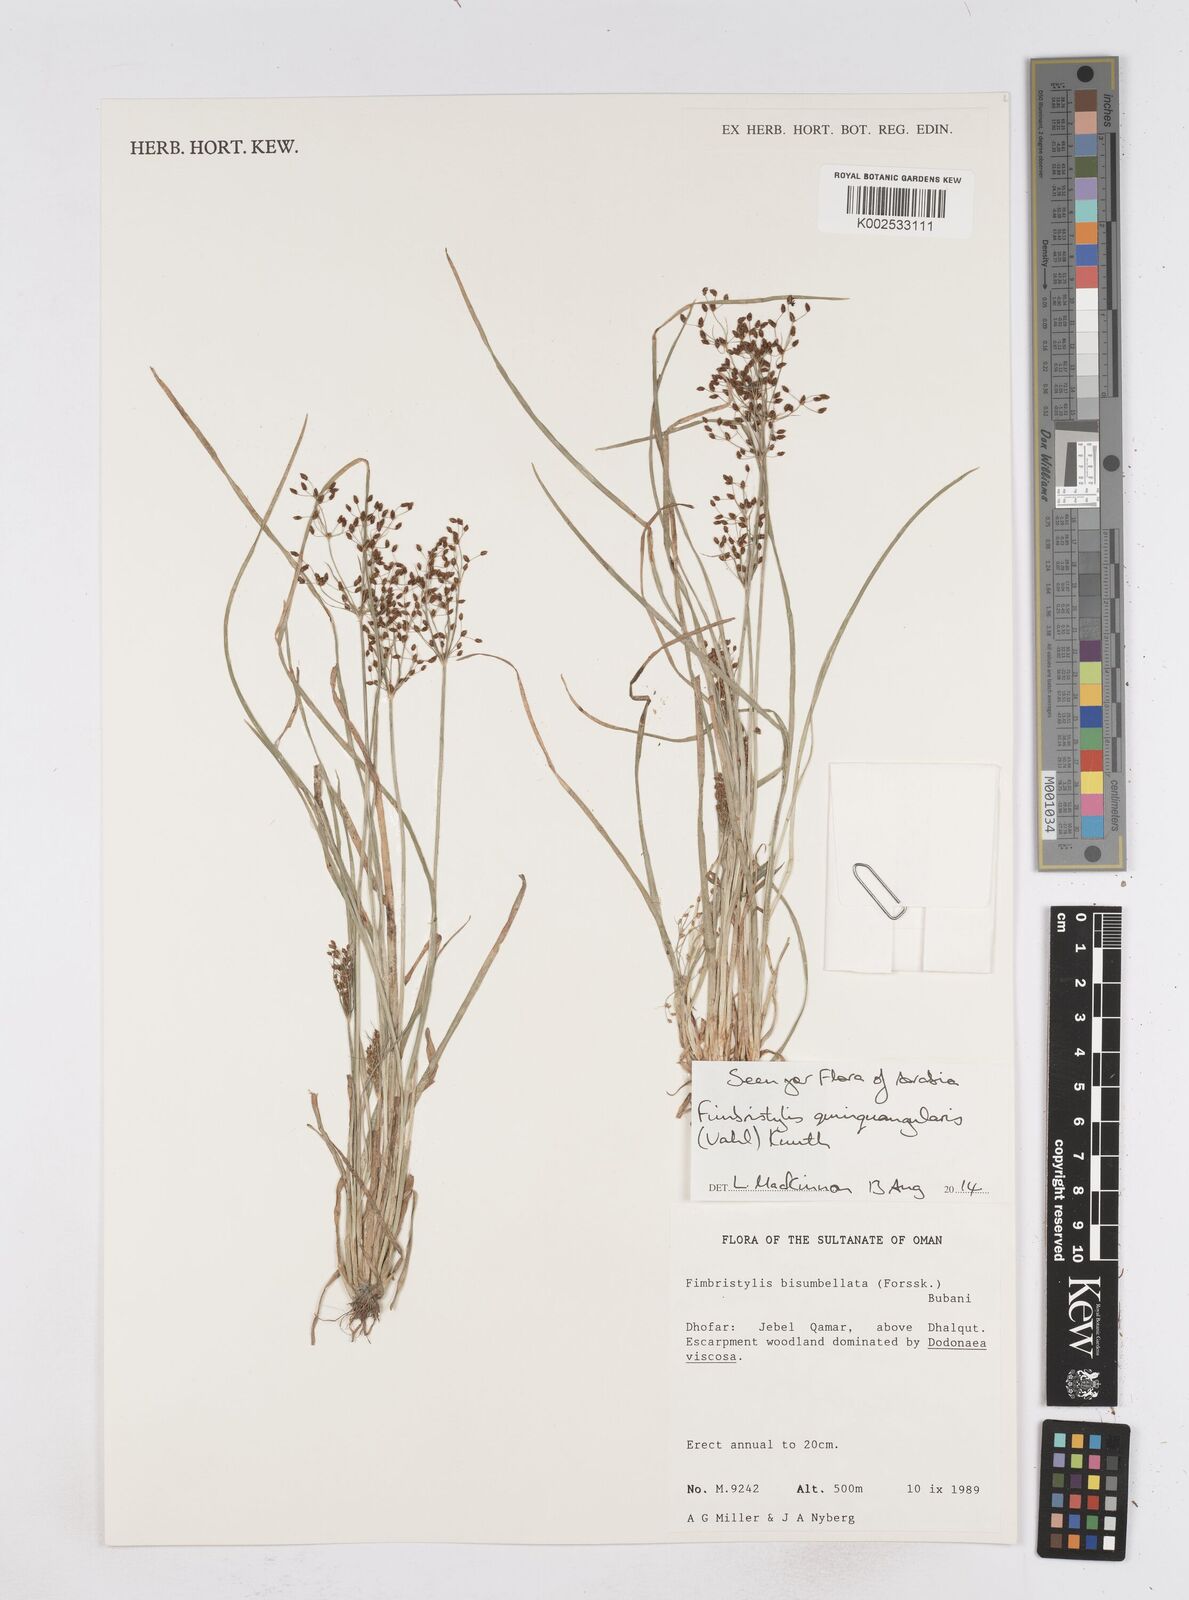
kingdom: Plantae
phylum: Tracheophyta
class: Liliopsida
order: Poales
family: Cyperaceae
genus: Fimbristylis
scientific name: Fimbristylis quinquangularis
